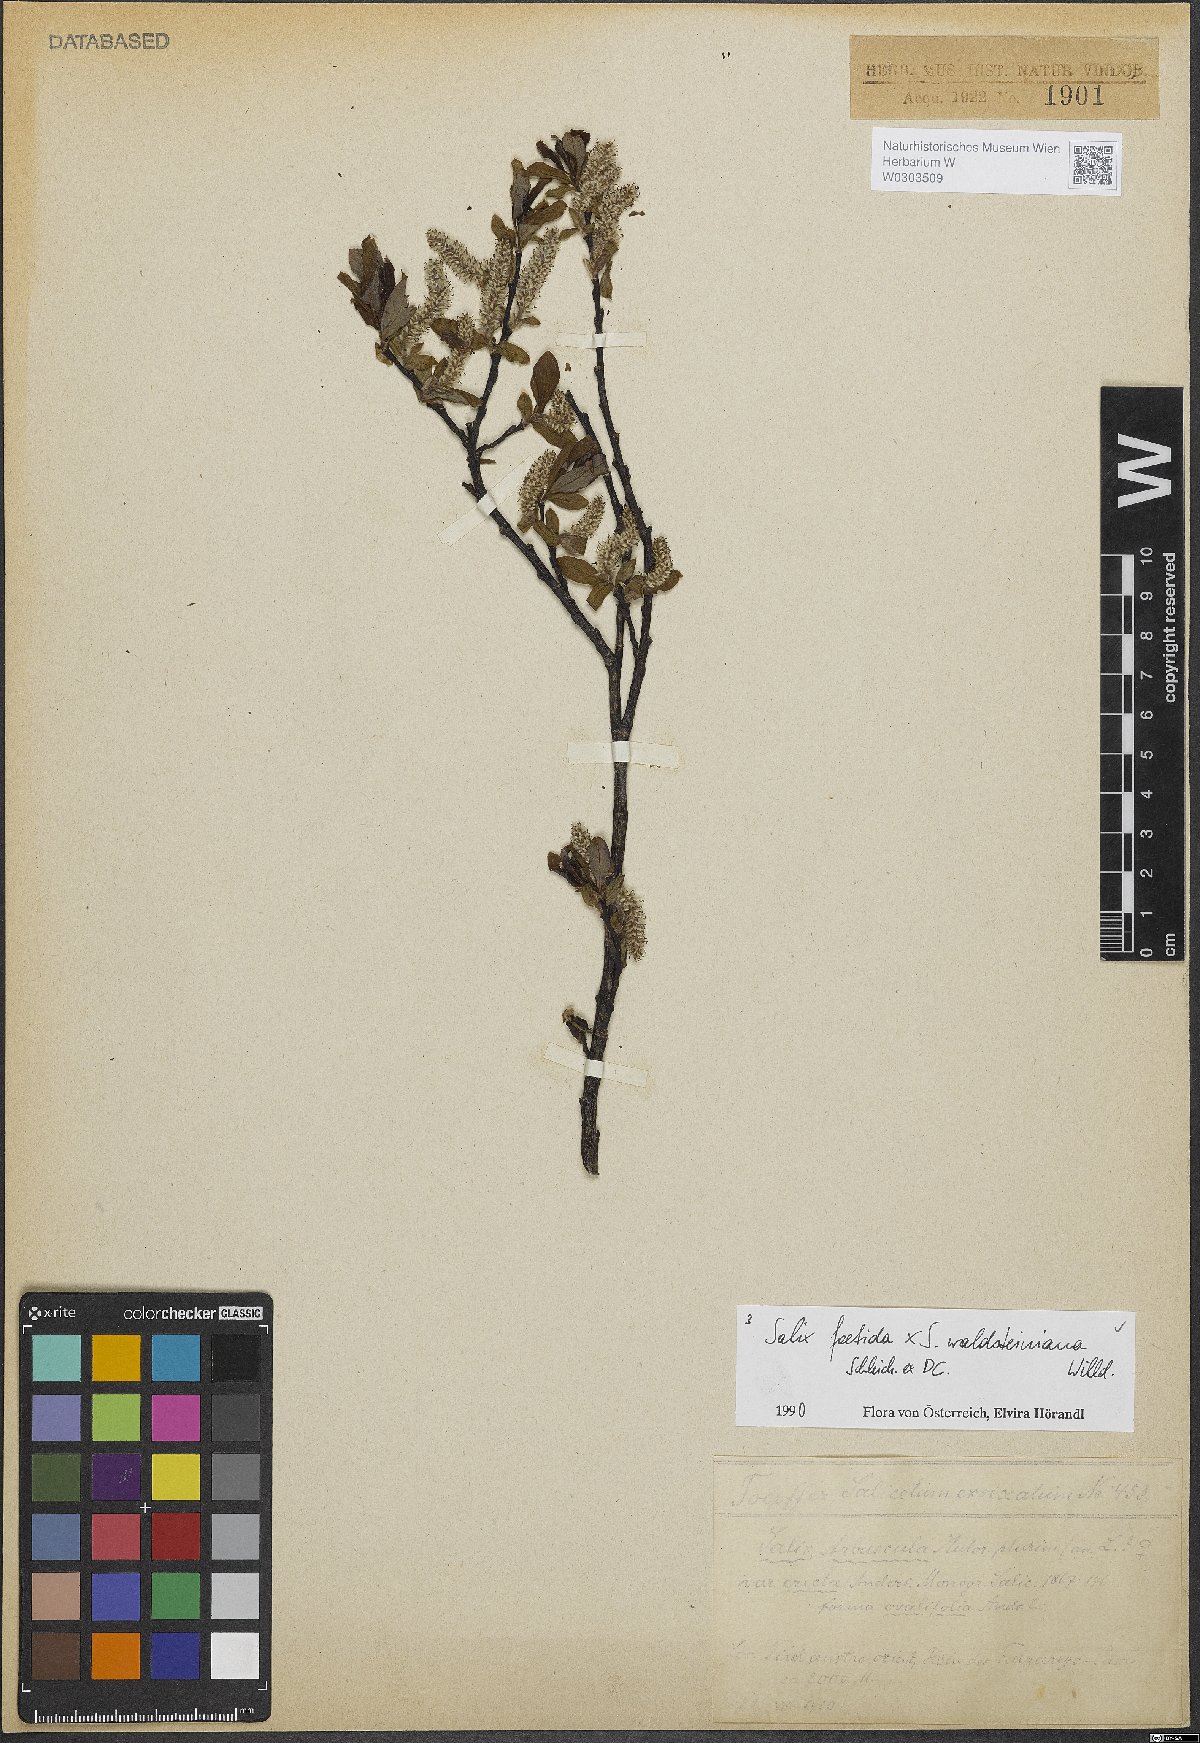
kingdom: Plantae
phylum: Tracheophyta
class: Magnoliopsida
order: Malpighiales
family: Salicaceae
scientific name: Salicaceae
